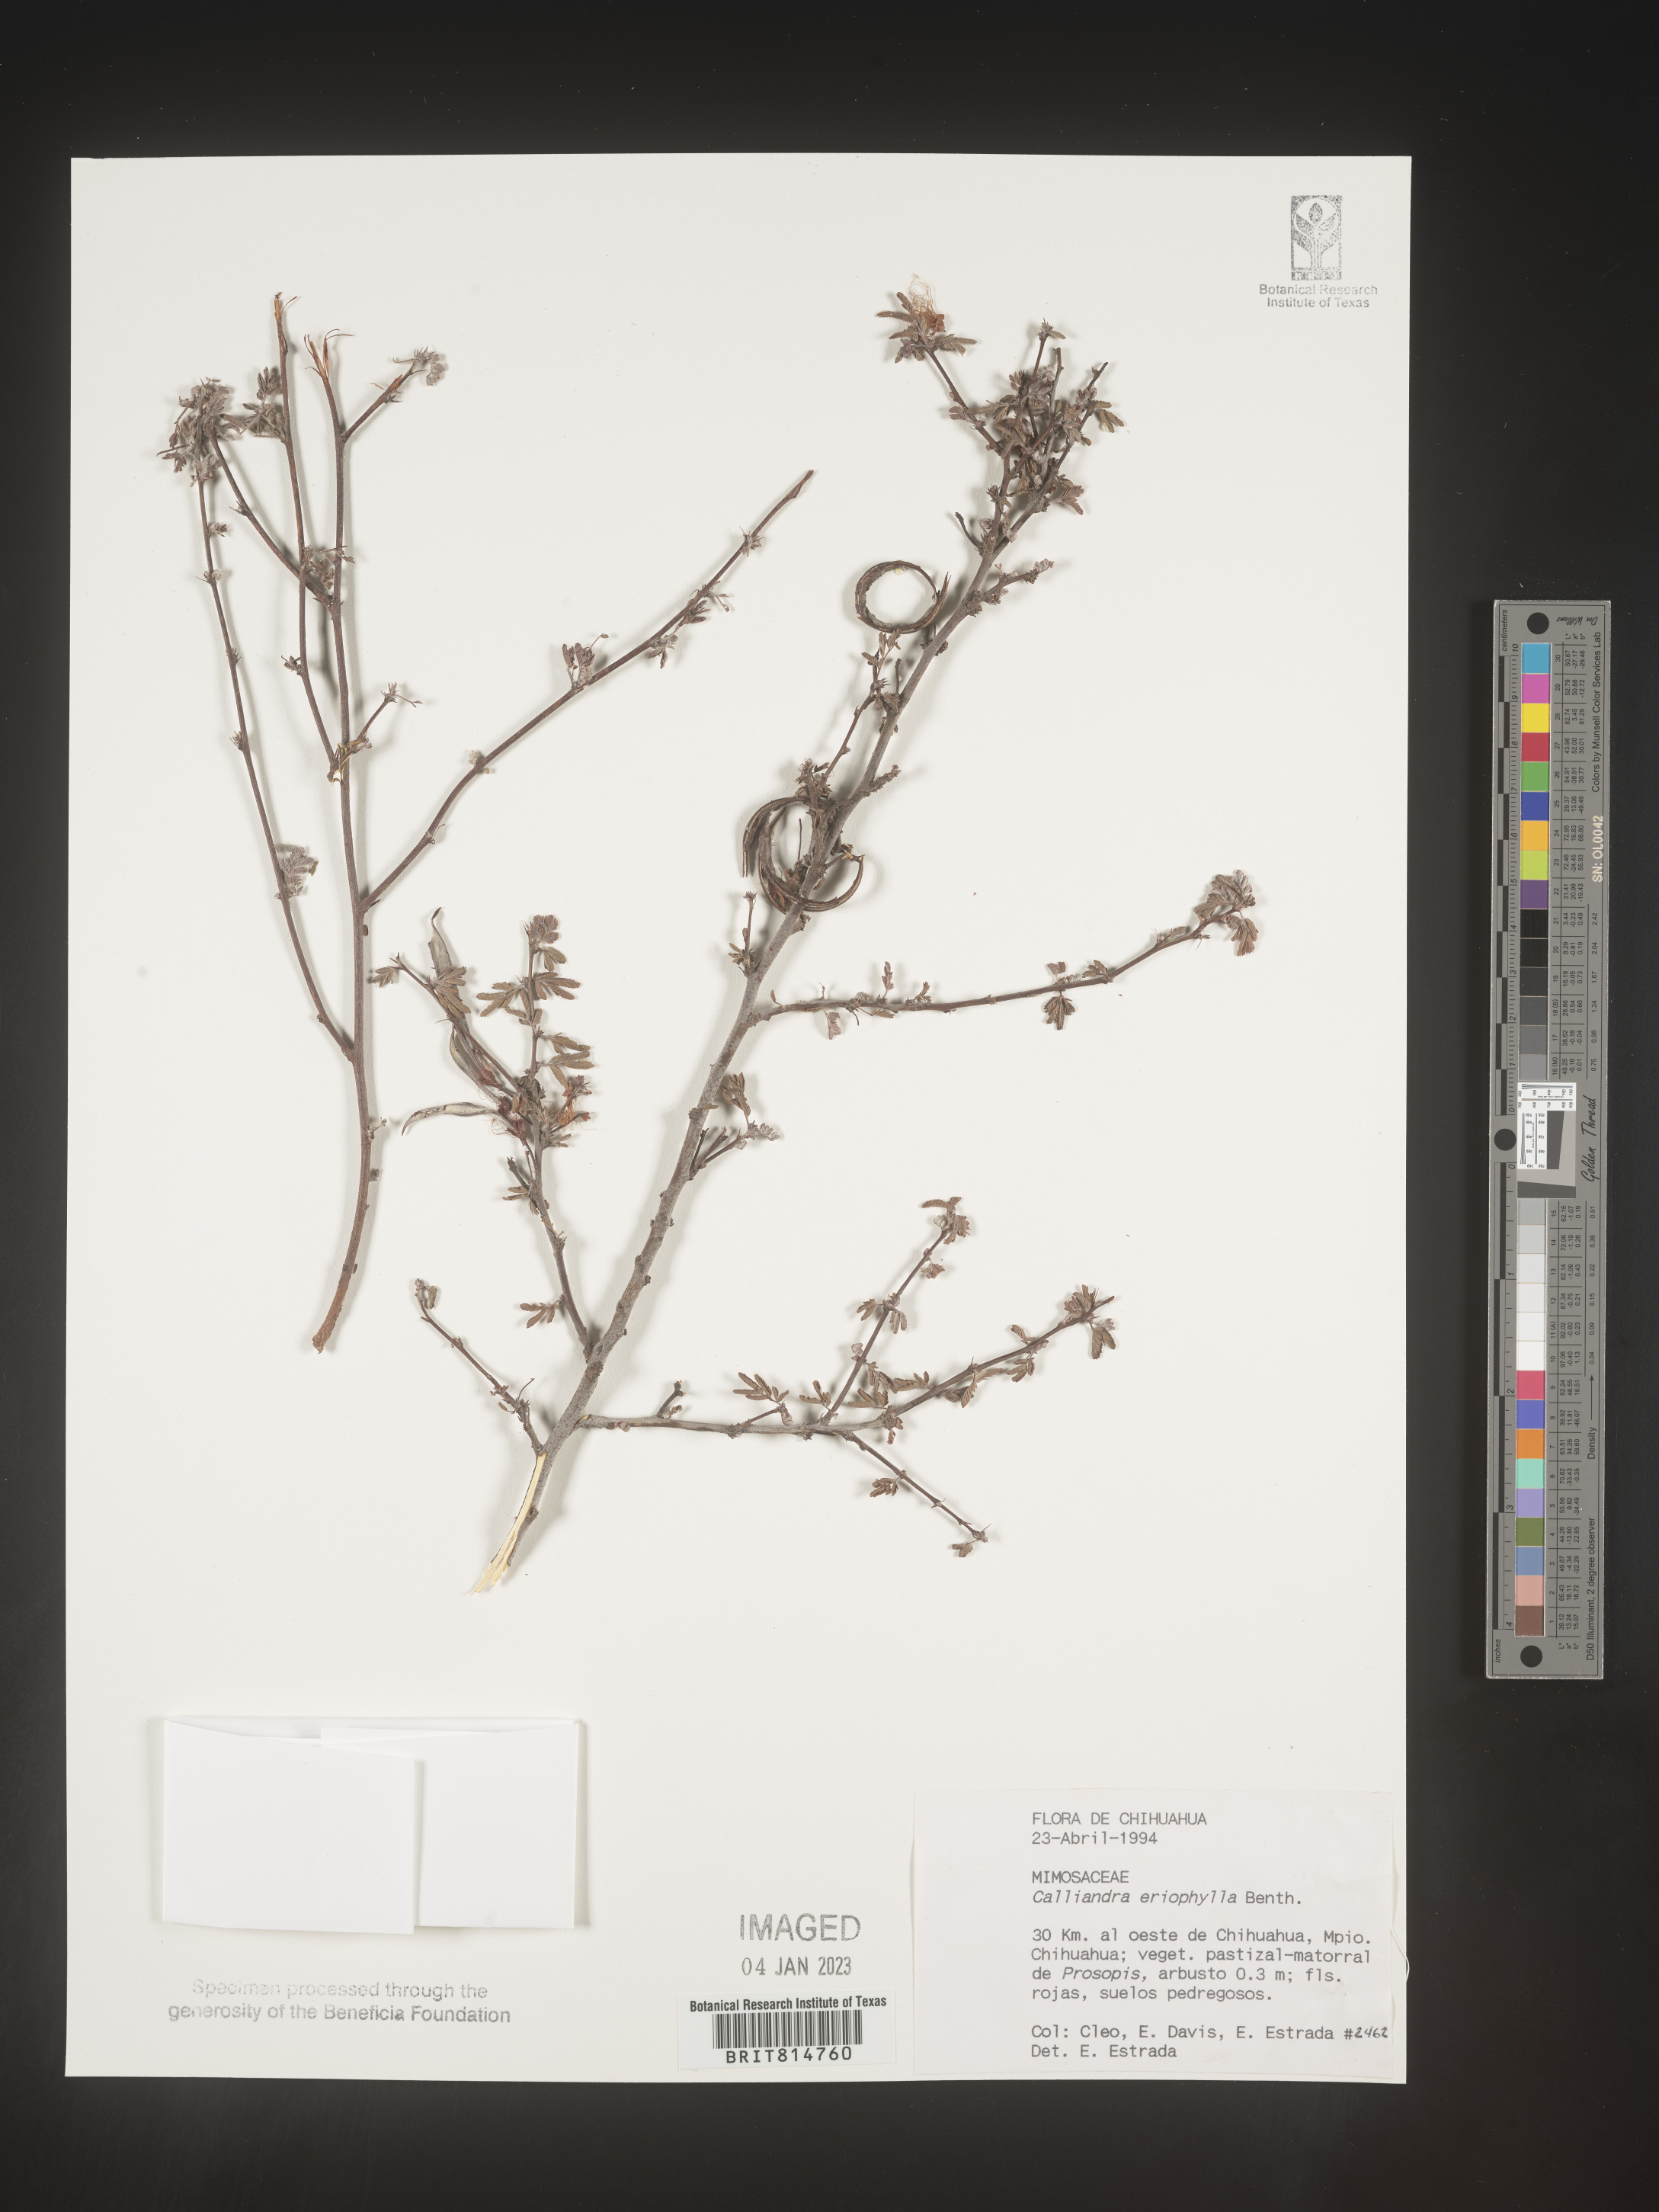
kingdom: Plantae
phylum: Tracheophyta
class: Magnoliopsida
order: Fabales
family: Fabaceae
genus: Calliandra
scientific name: Calliandra
